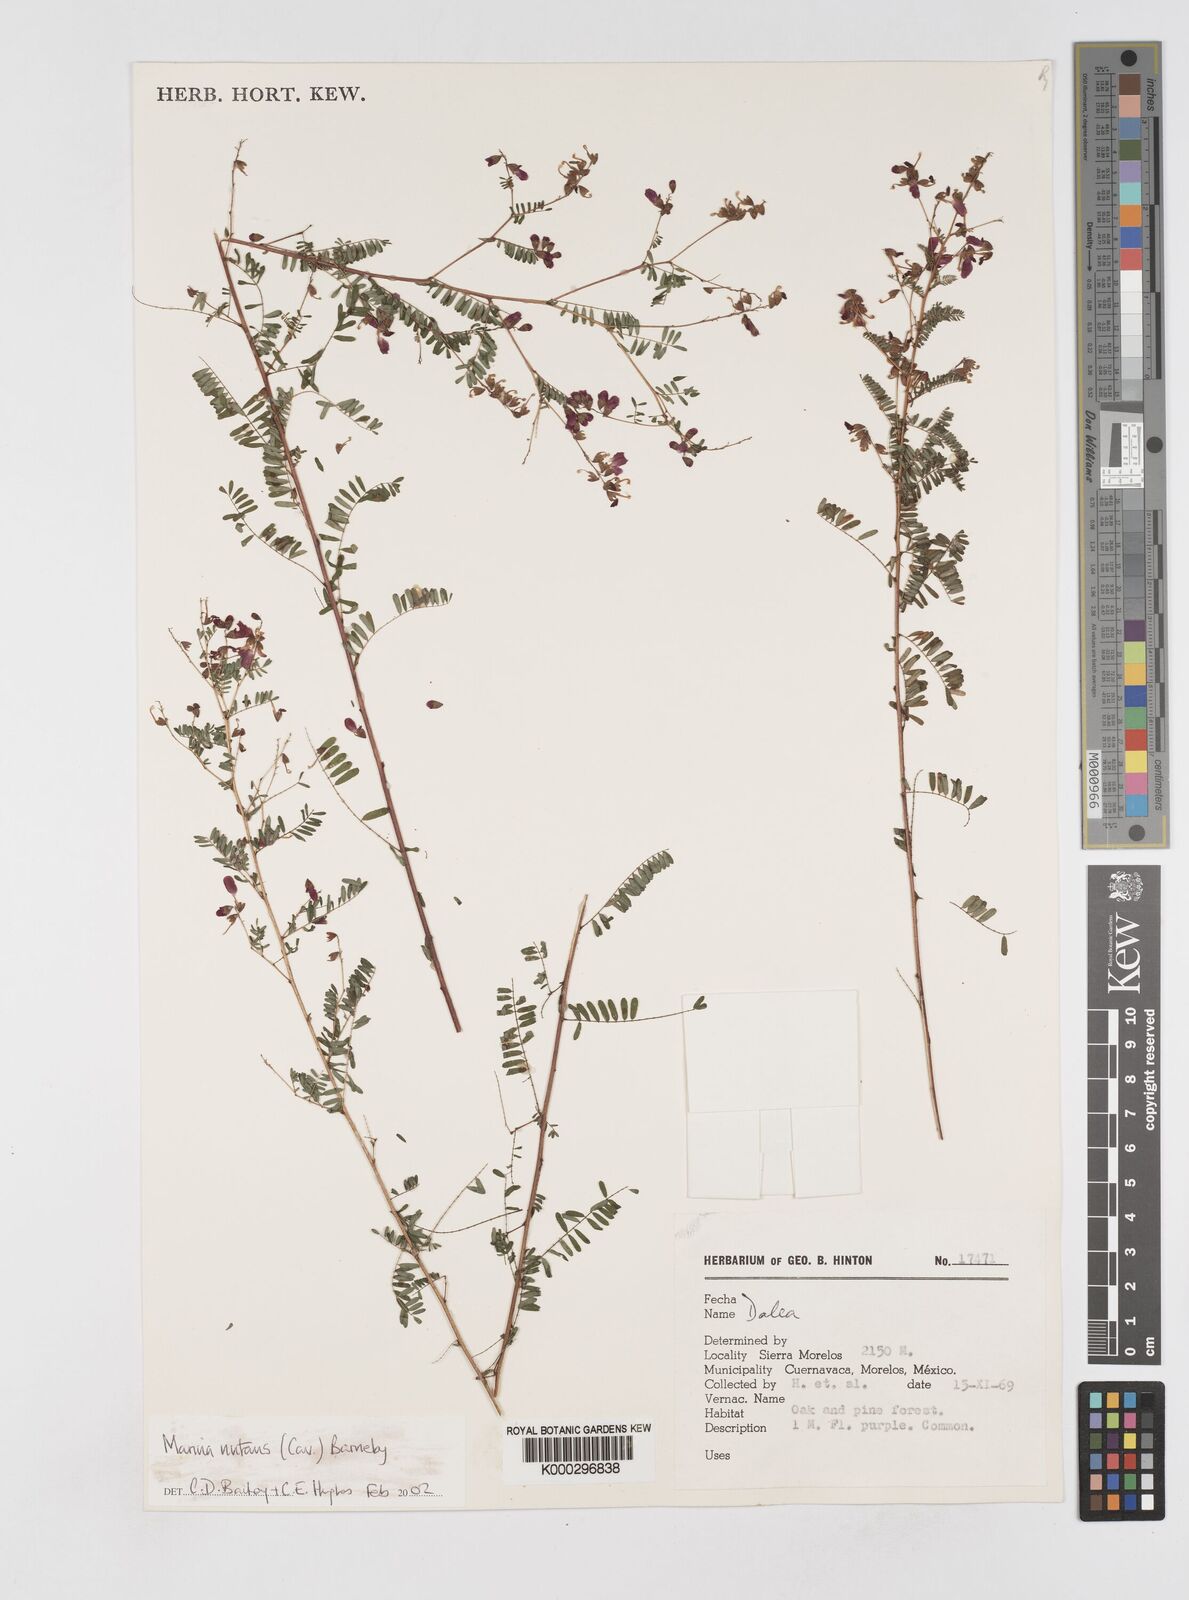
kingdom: Plantae
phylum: Tracheophyta
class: Magnoliopsida
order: Fabales
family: Fabaceae
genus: Marina
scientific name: Marina nutans
